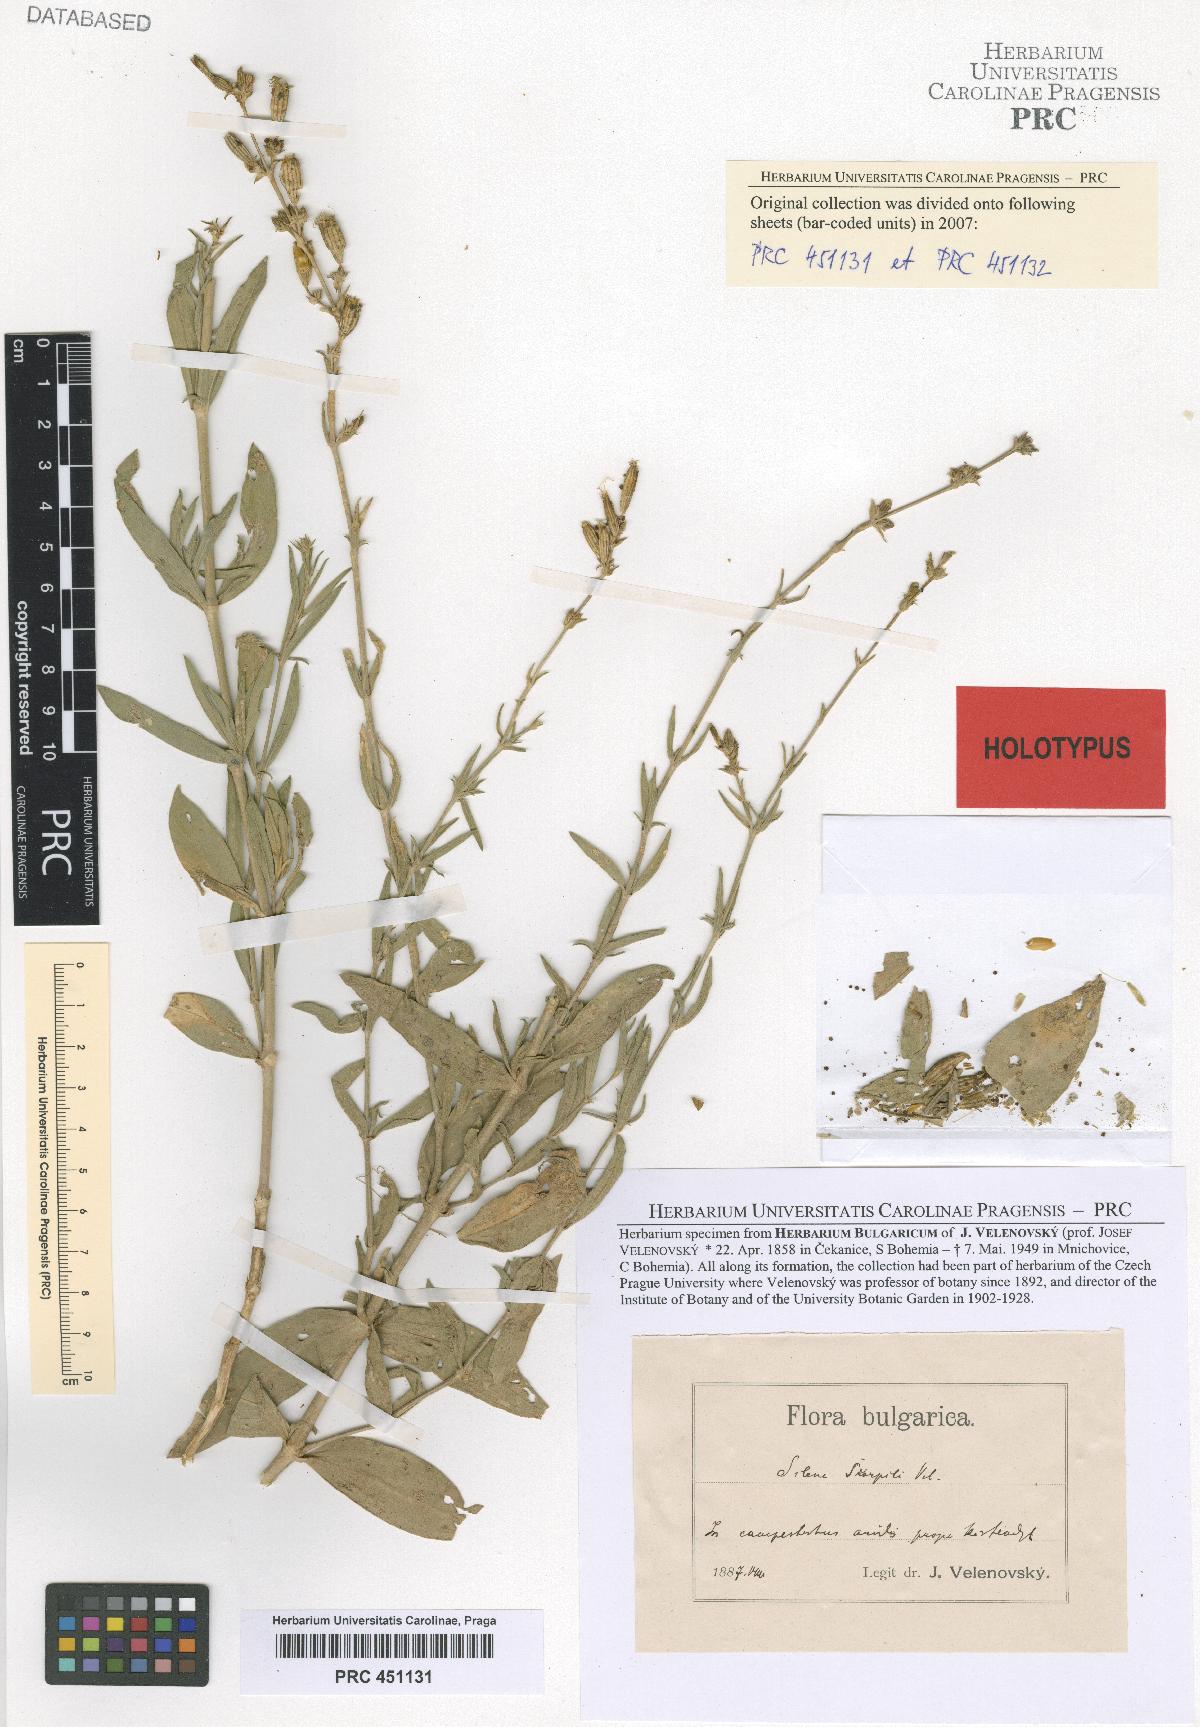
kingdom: Plantae
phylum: Tracheophyta
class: Magnoliopsida
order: Caryophyllales
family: Caryophyllaceae
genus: Silene
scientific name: Silene skorpilii
